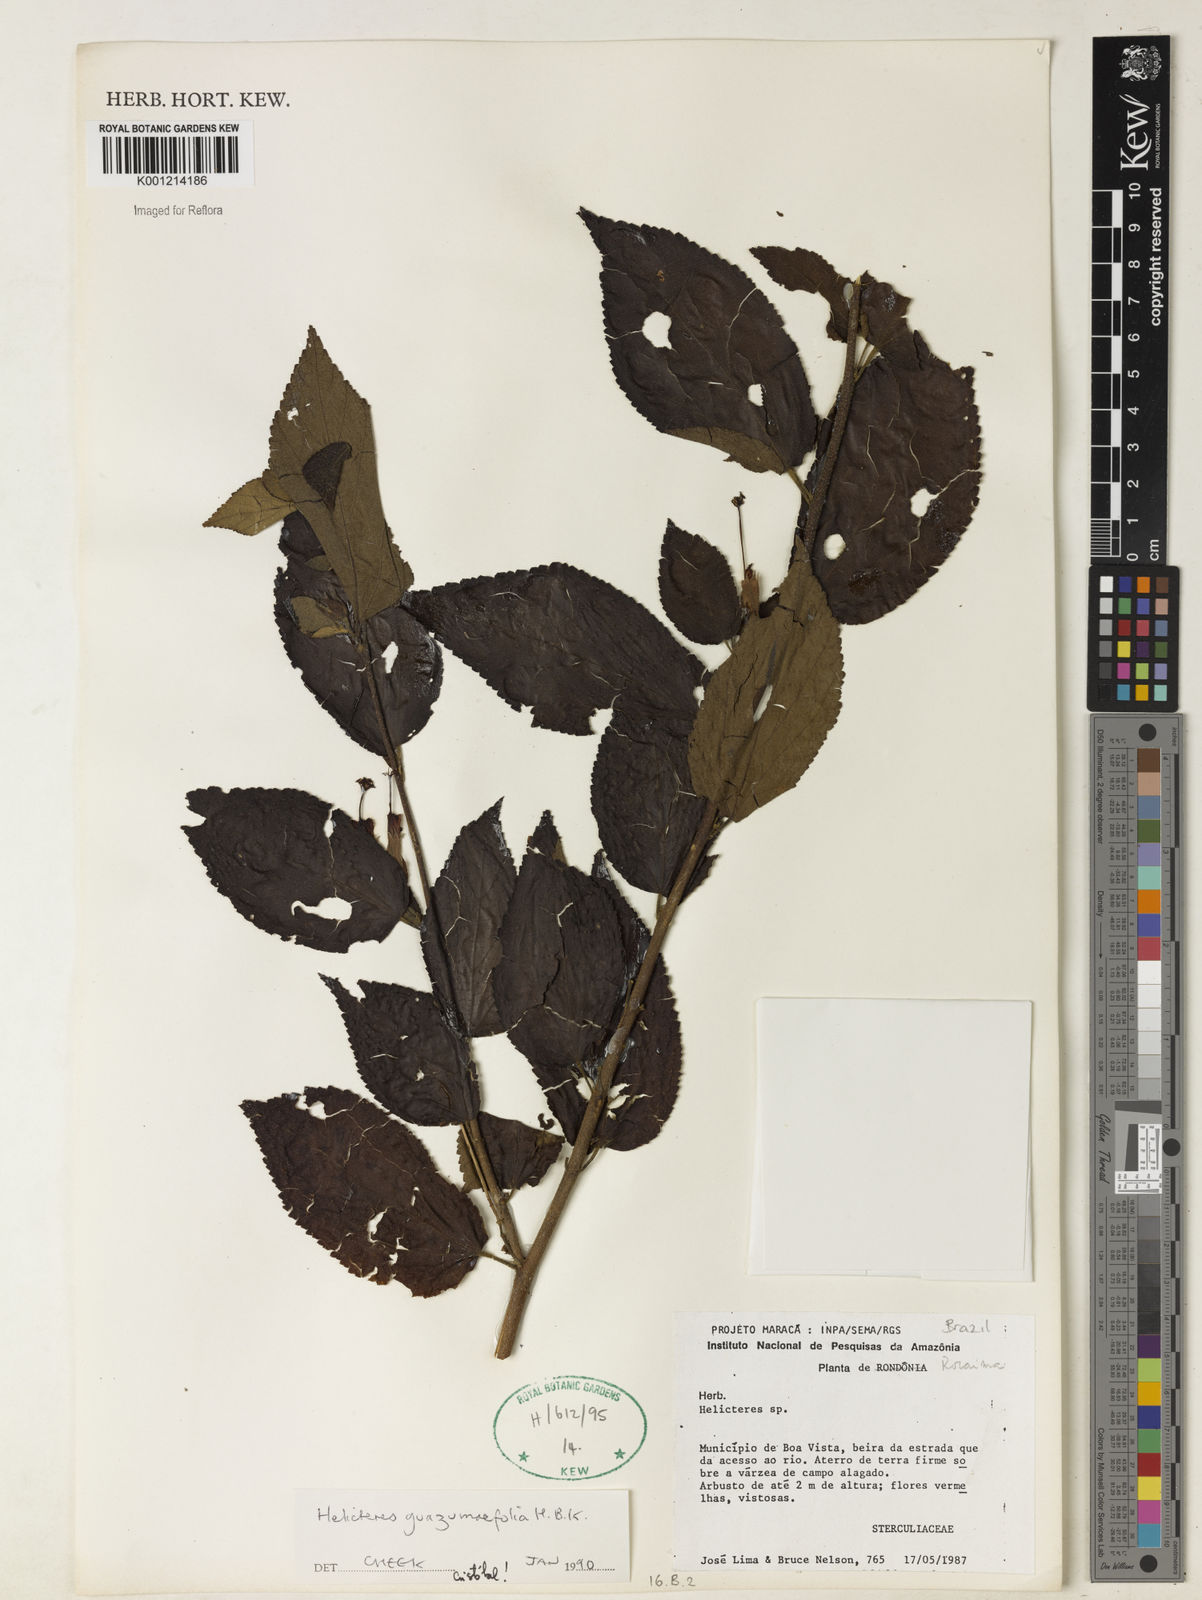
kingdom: Plantae
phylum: Tracheophyta
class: Magnoliopsida
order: Malvales
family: Malvaceae
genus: Helicteres
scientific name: Helicteres guazumifolia
